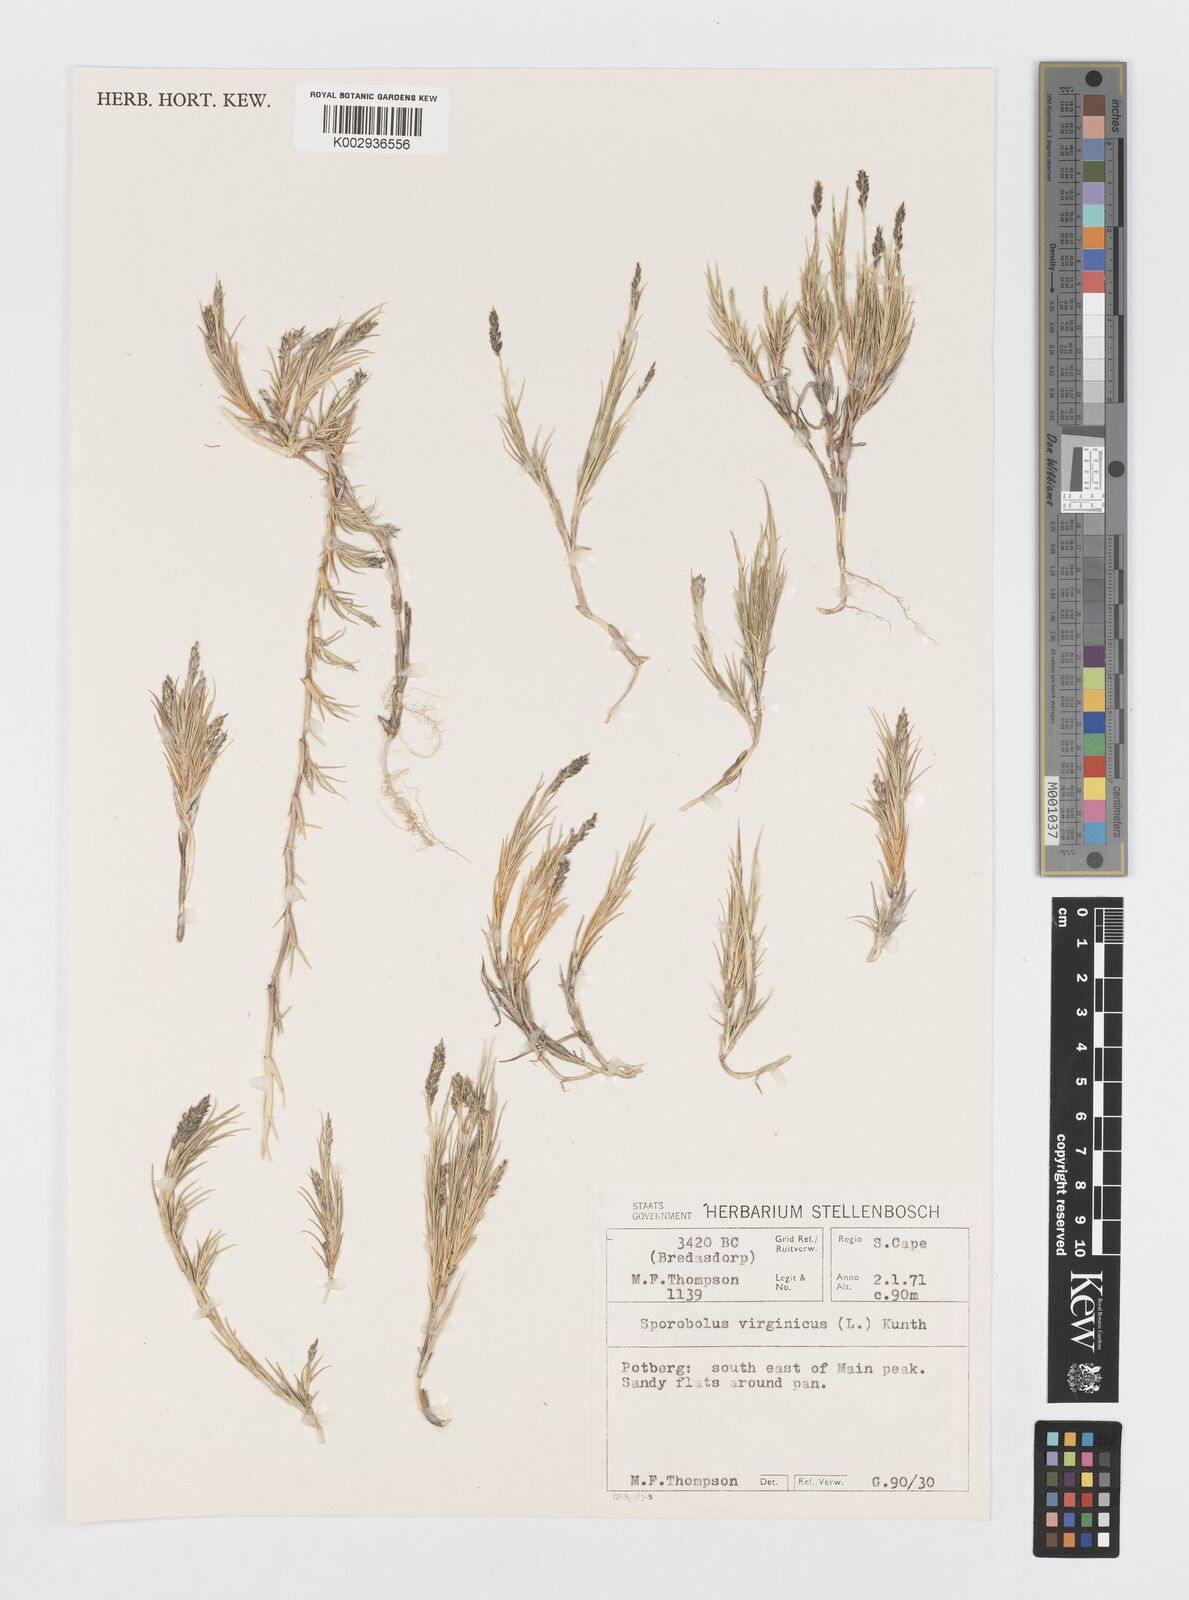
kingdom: Plantae
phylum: Tracheophyta
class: Liliopsida
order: Poales
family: Poaceae
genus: Sporobolus
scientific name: Sporobolus virginicus
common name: Beach dropseed
